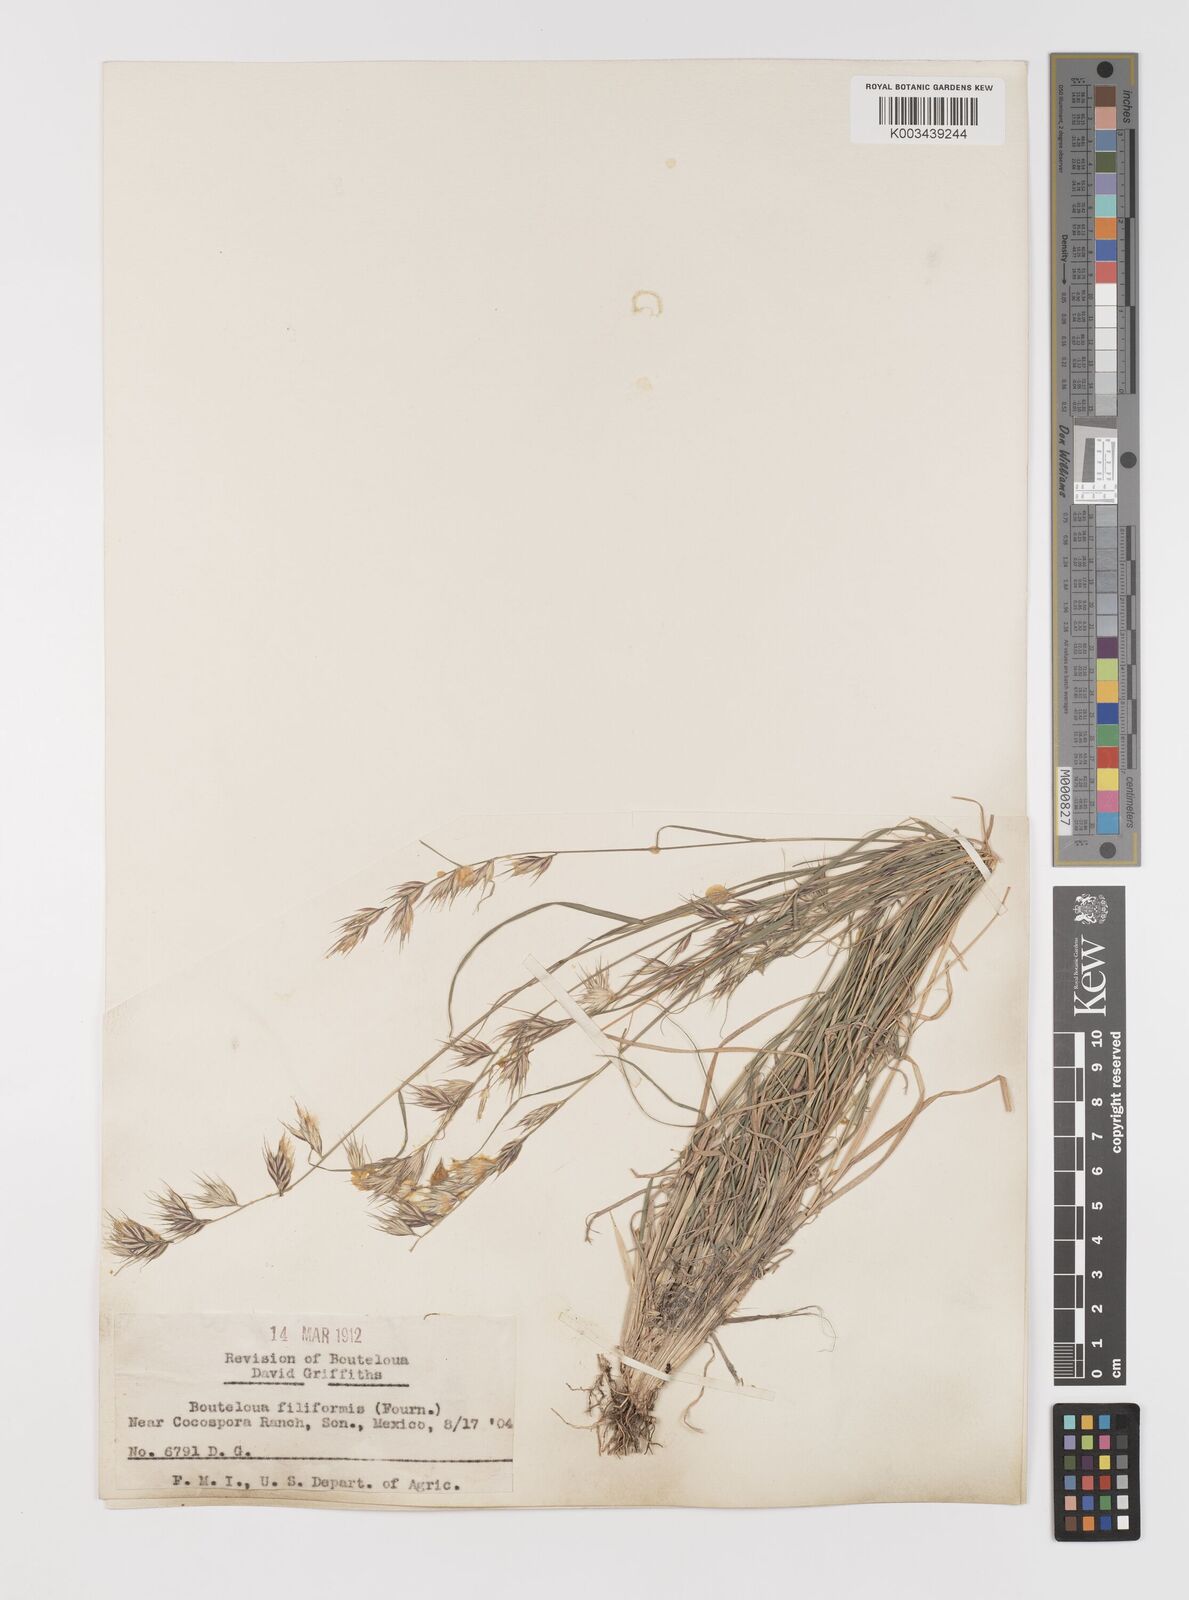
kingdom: Plantae
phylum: Tracheophyta
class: Liliopsida
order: Poales
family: Poaceae
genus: Bouteloua
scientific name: Bouteloua repens
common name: Slender grama
